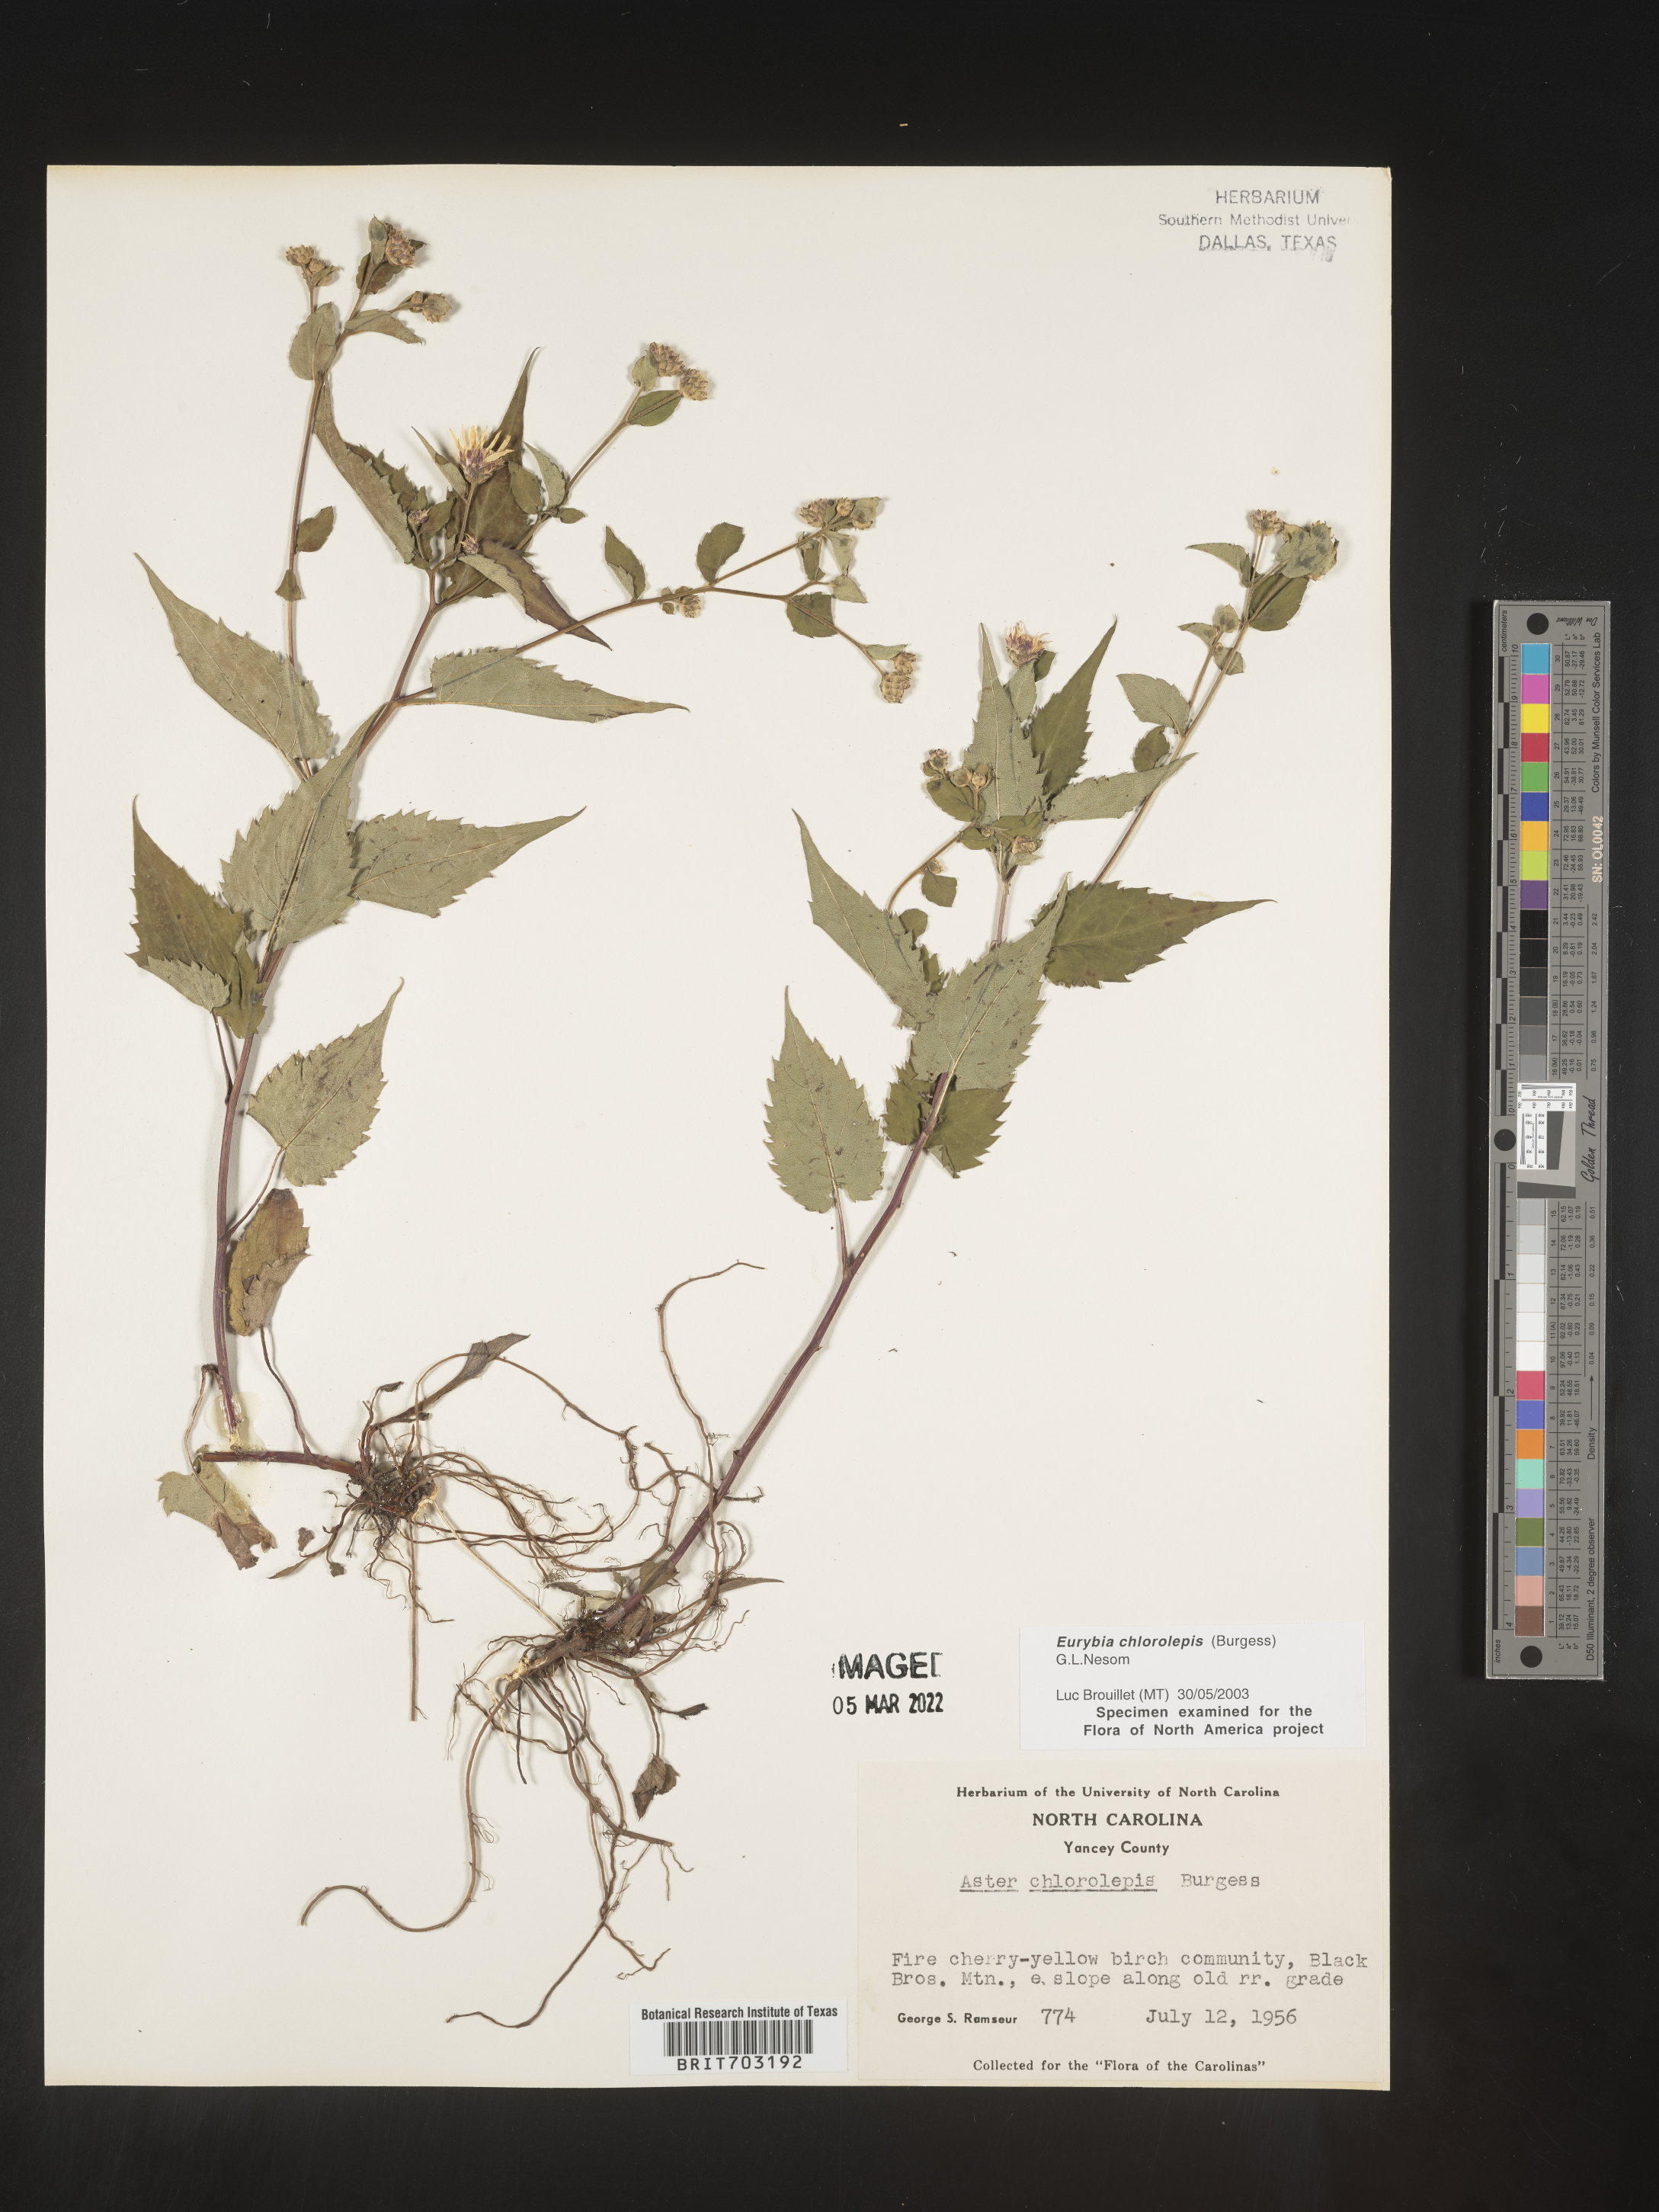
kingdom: Plantae
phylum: Tracheophyta
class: Magnoliopsida
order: Asterales
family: Asteraceae
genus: Eurybia
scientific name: Eurybia chlorolepis
